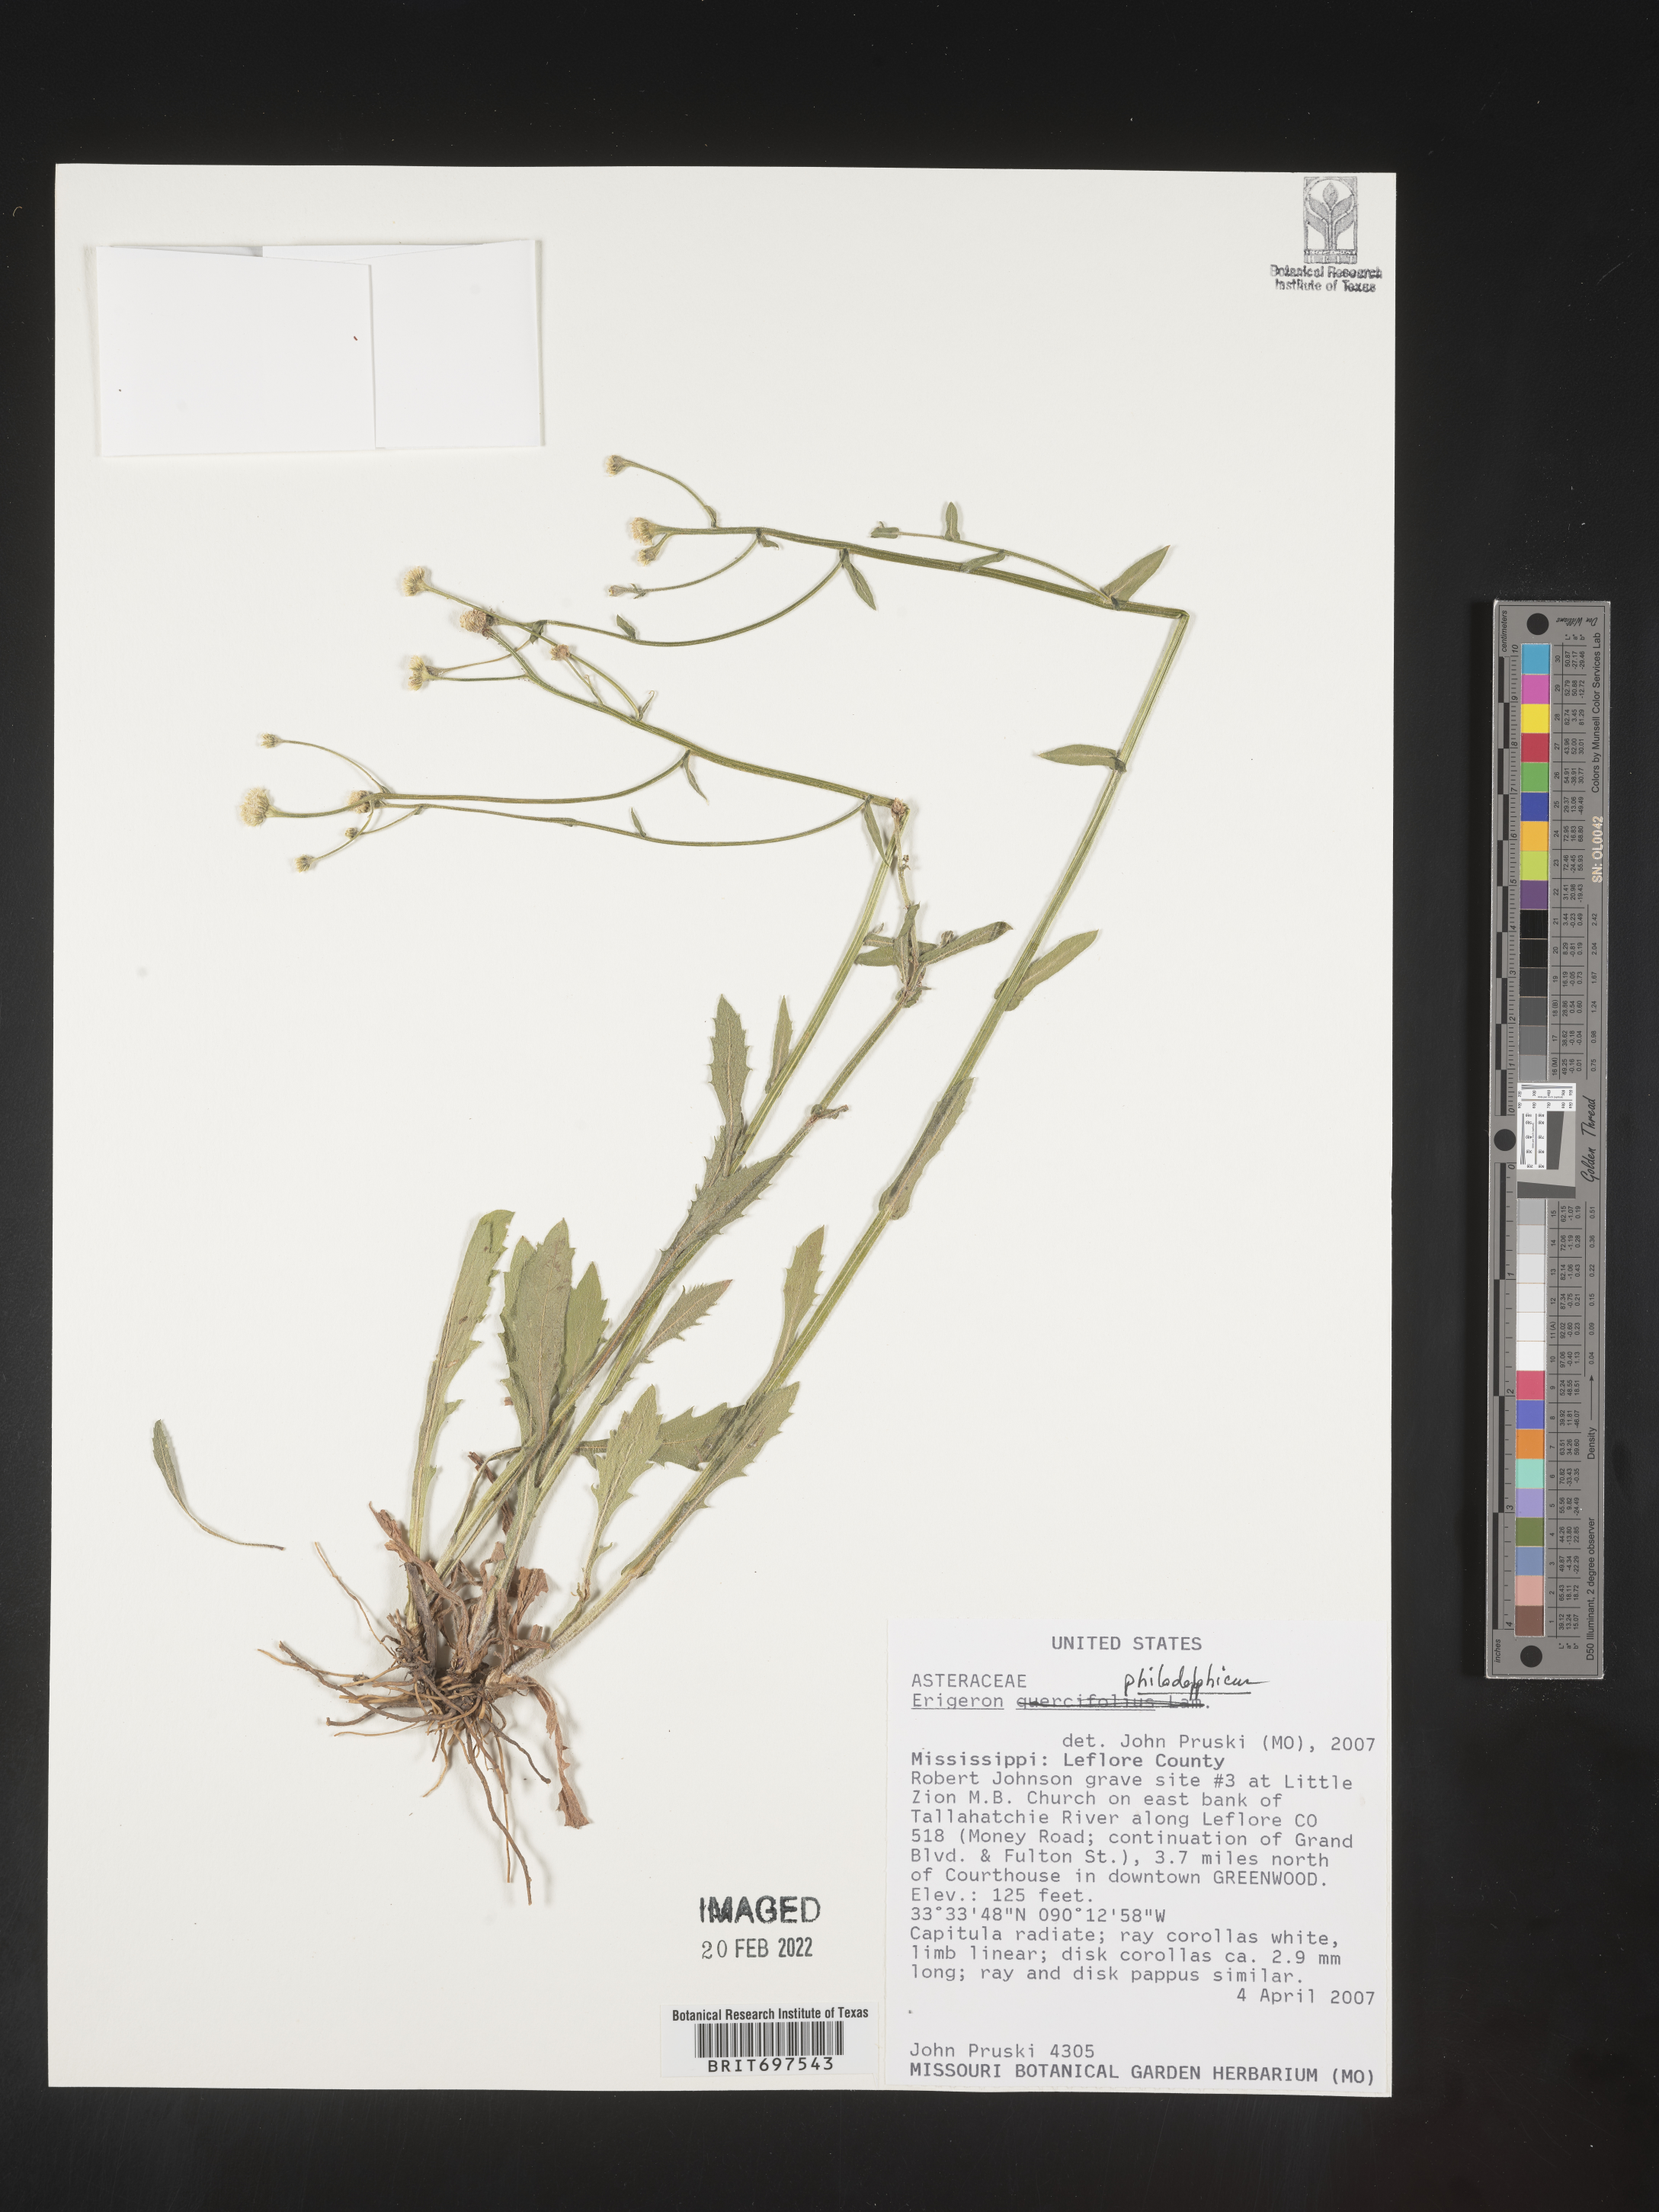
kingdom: Plantae
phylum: Tracheophyta
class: Magnoliopsida
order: Asterales
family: Asteraceae
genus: Erigeron
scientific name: Erigeron philadelphicus
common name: Robin's-plantain
